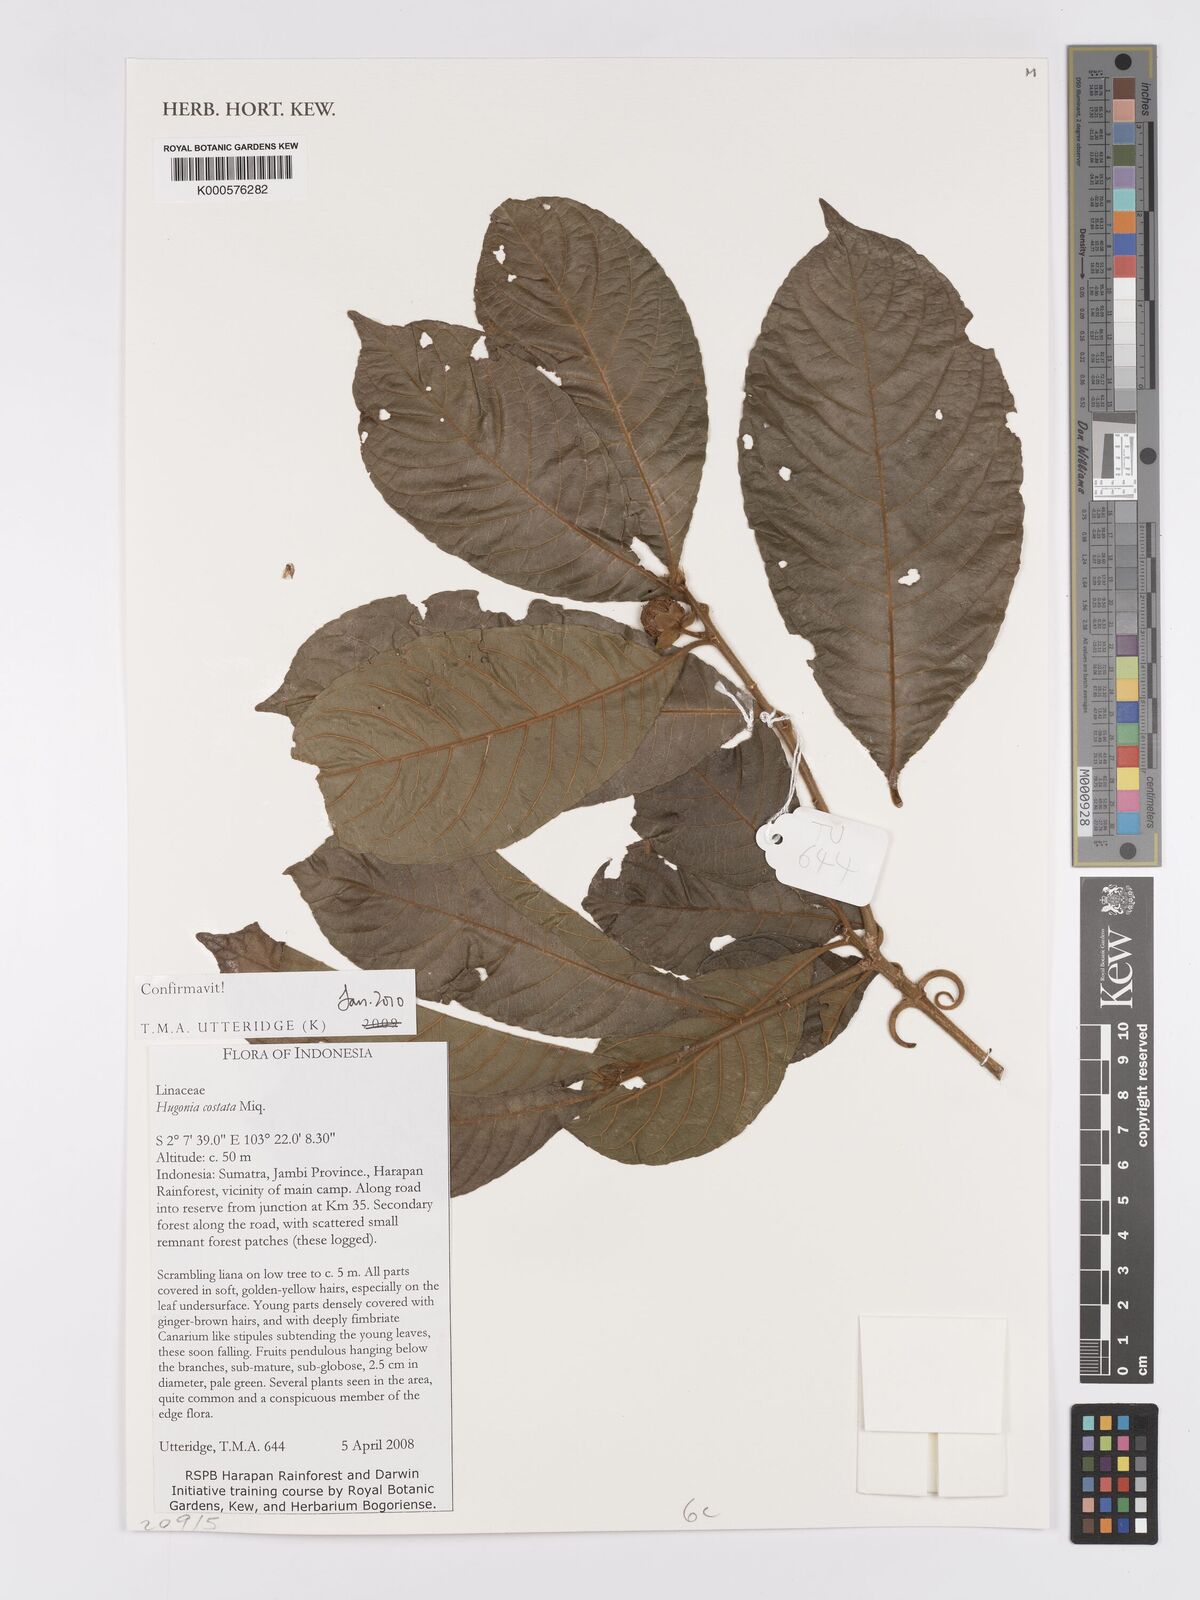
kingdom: Plantae
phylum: Tracheophyta
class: Magnoliopsida
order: Malpighiales
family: Linaceae
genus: Hugonia
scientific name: Hugonia costata
